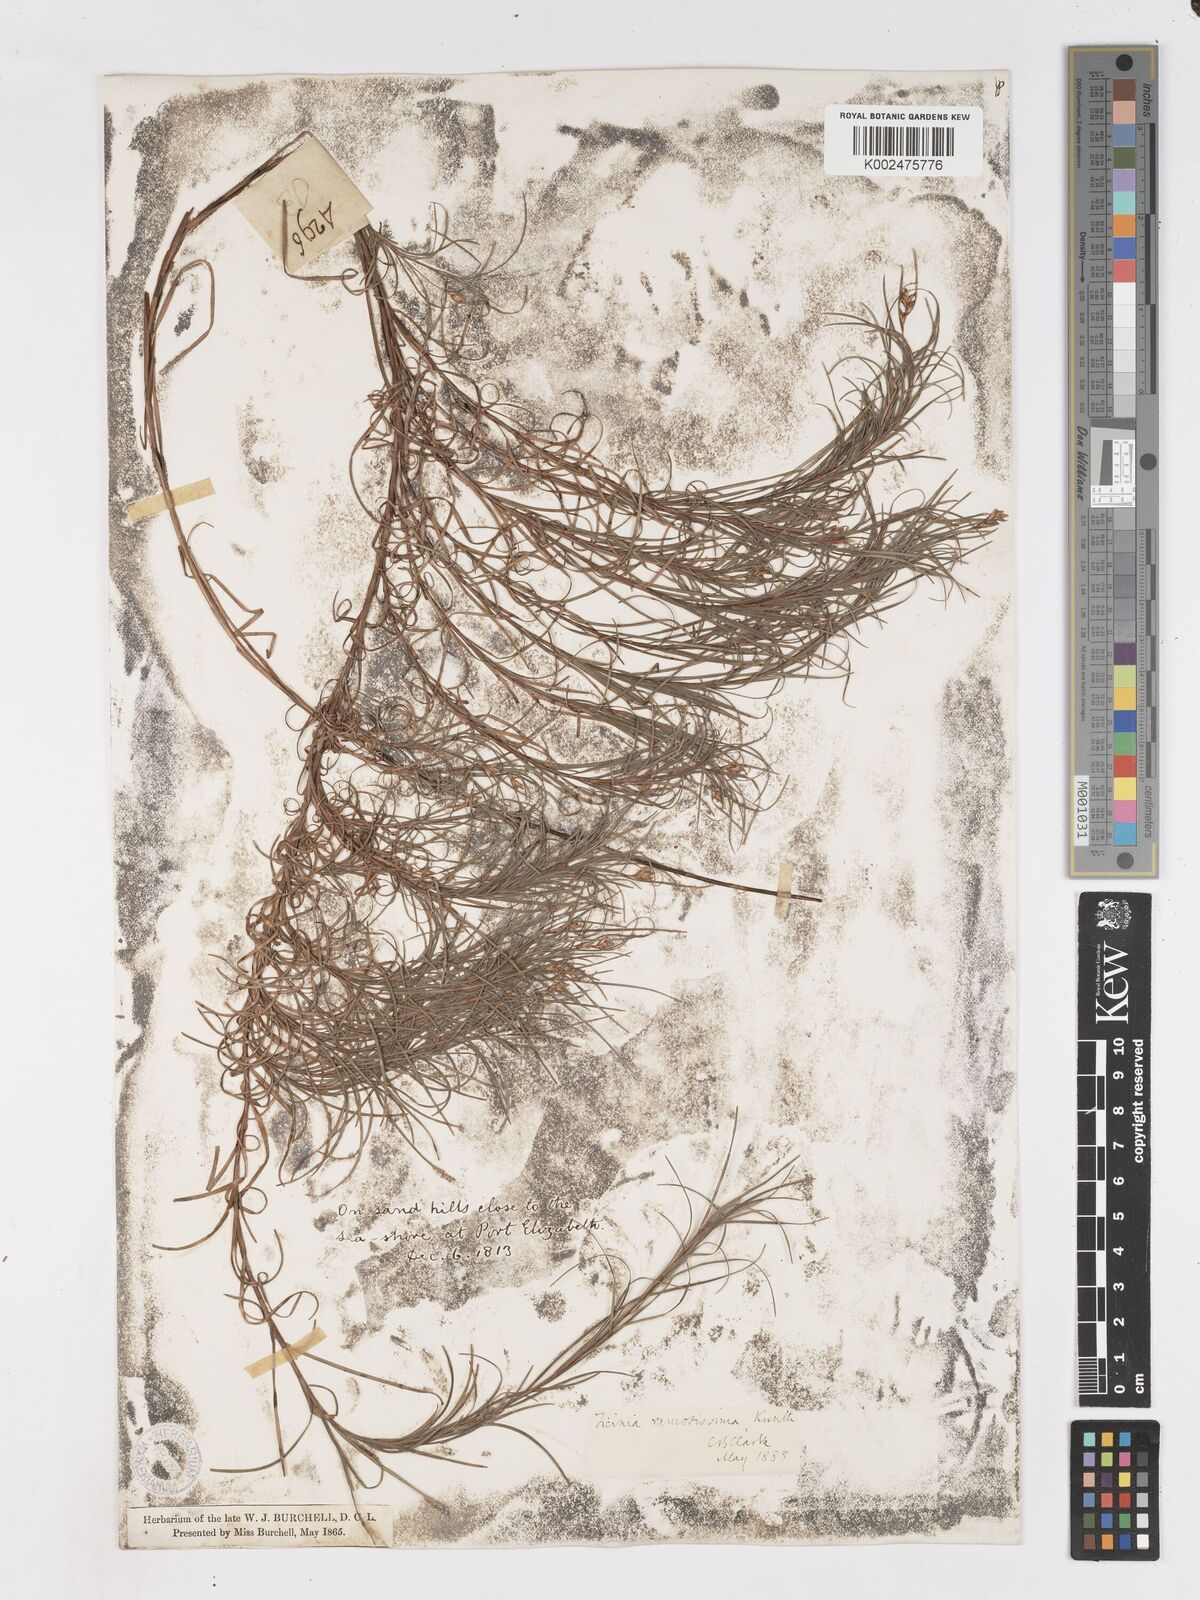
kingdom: Plantae
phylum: Tracheophyta
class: Liliopsida
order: Poales
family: Cyperaceae
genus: Ficinia
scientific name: Ficinia ramosissima
